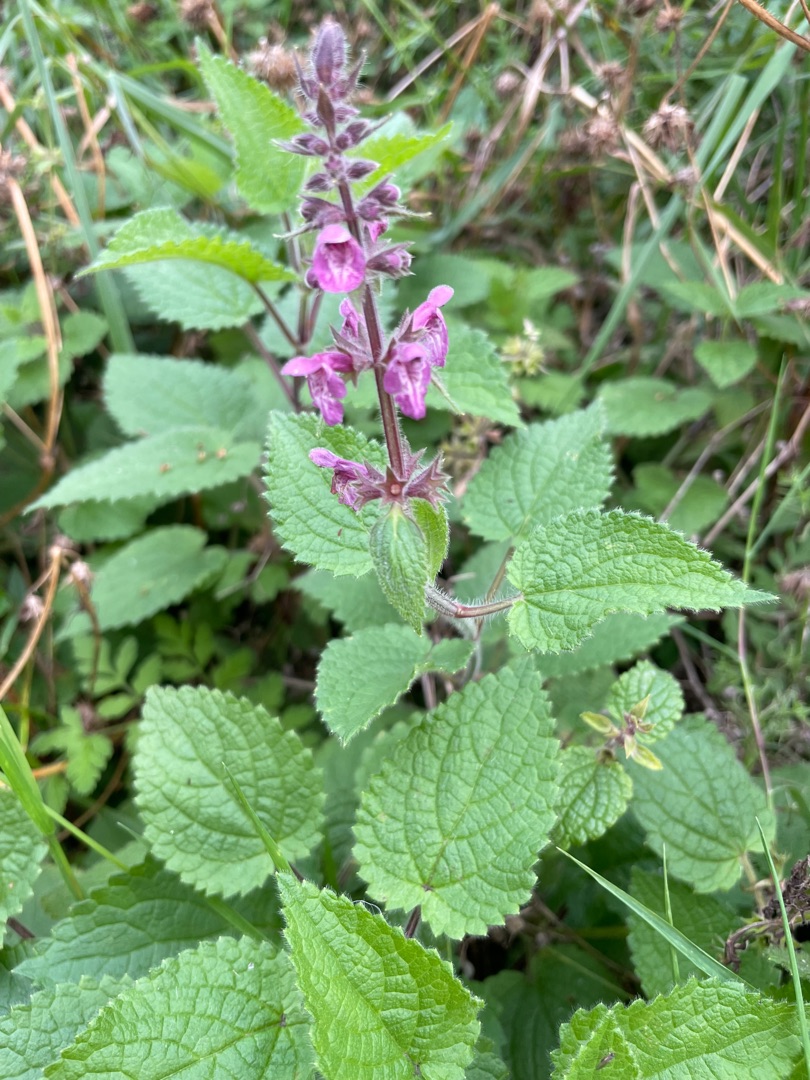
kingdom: Plantae
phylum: Tracheophyta
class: Magnoliopsida
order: Lamiales
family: Lamiaceae
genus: Stachys
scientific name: Stachys sylvatica
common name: Skov-galtetand
